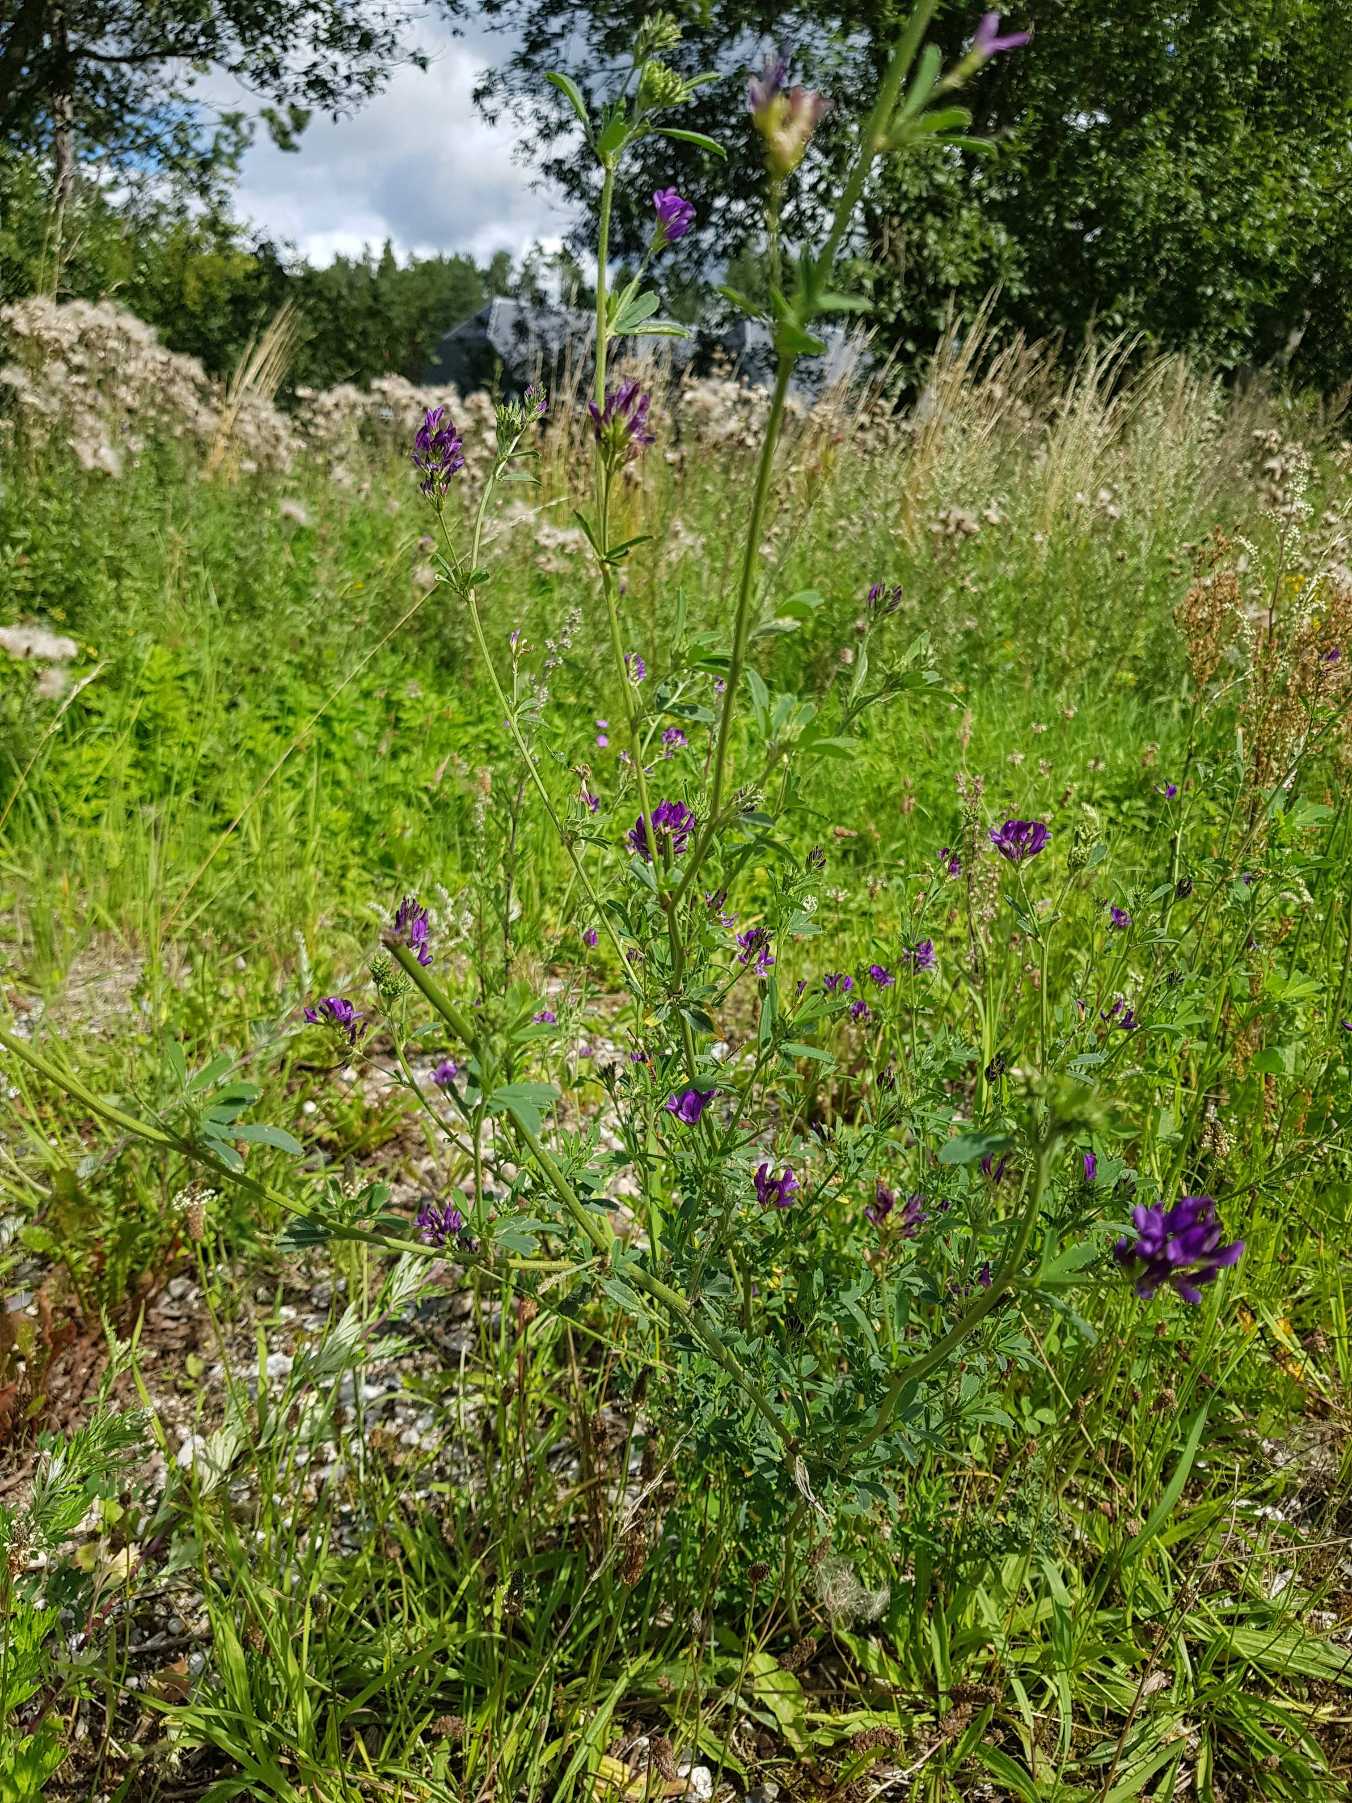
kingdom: Plantae
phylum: Tracheophyta
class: Magnoliopsida
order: Fabales
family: Fabaceae
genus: Medicago
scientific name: Medicago sativa
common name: Foderlucerne
